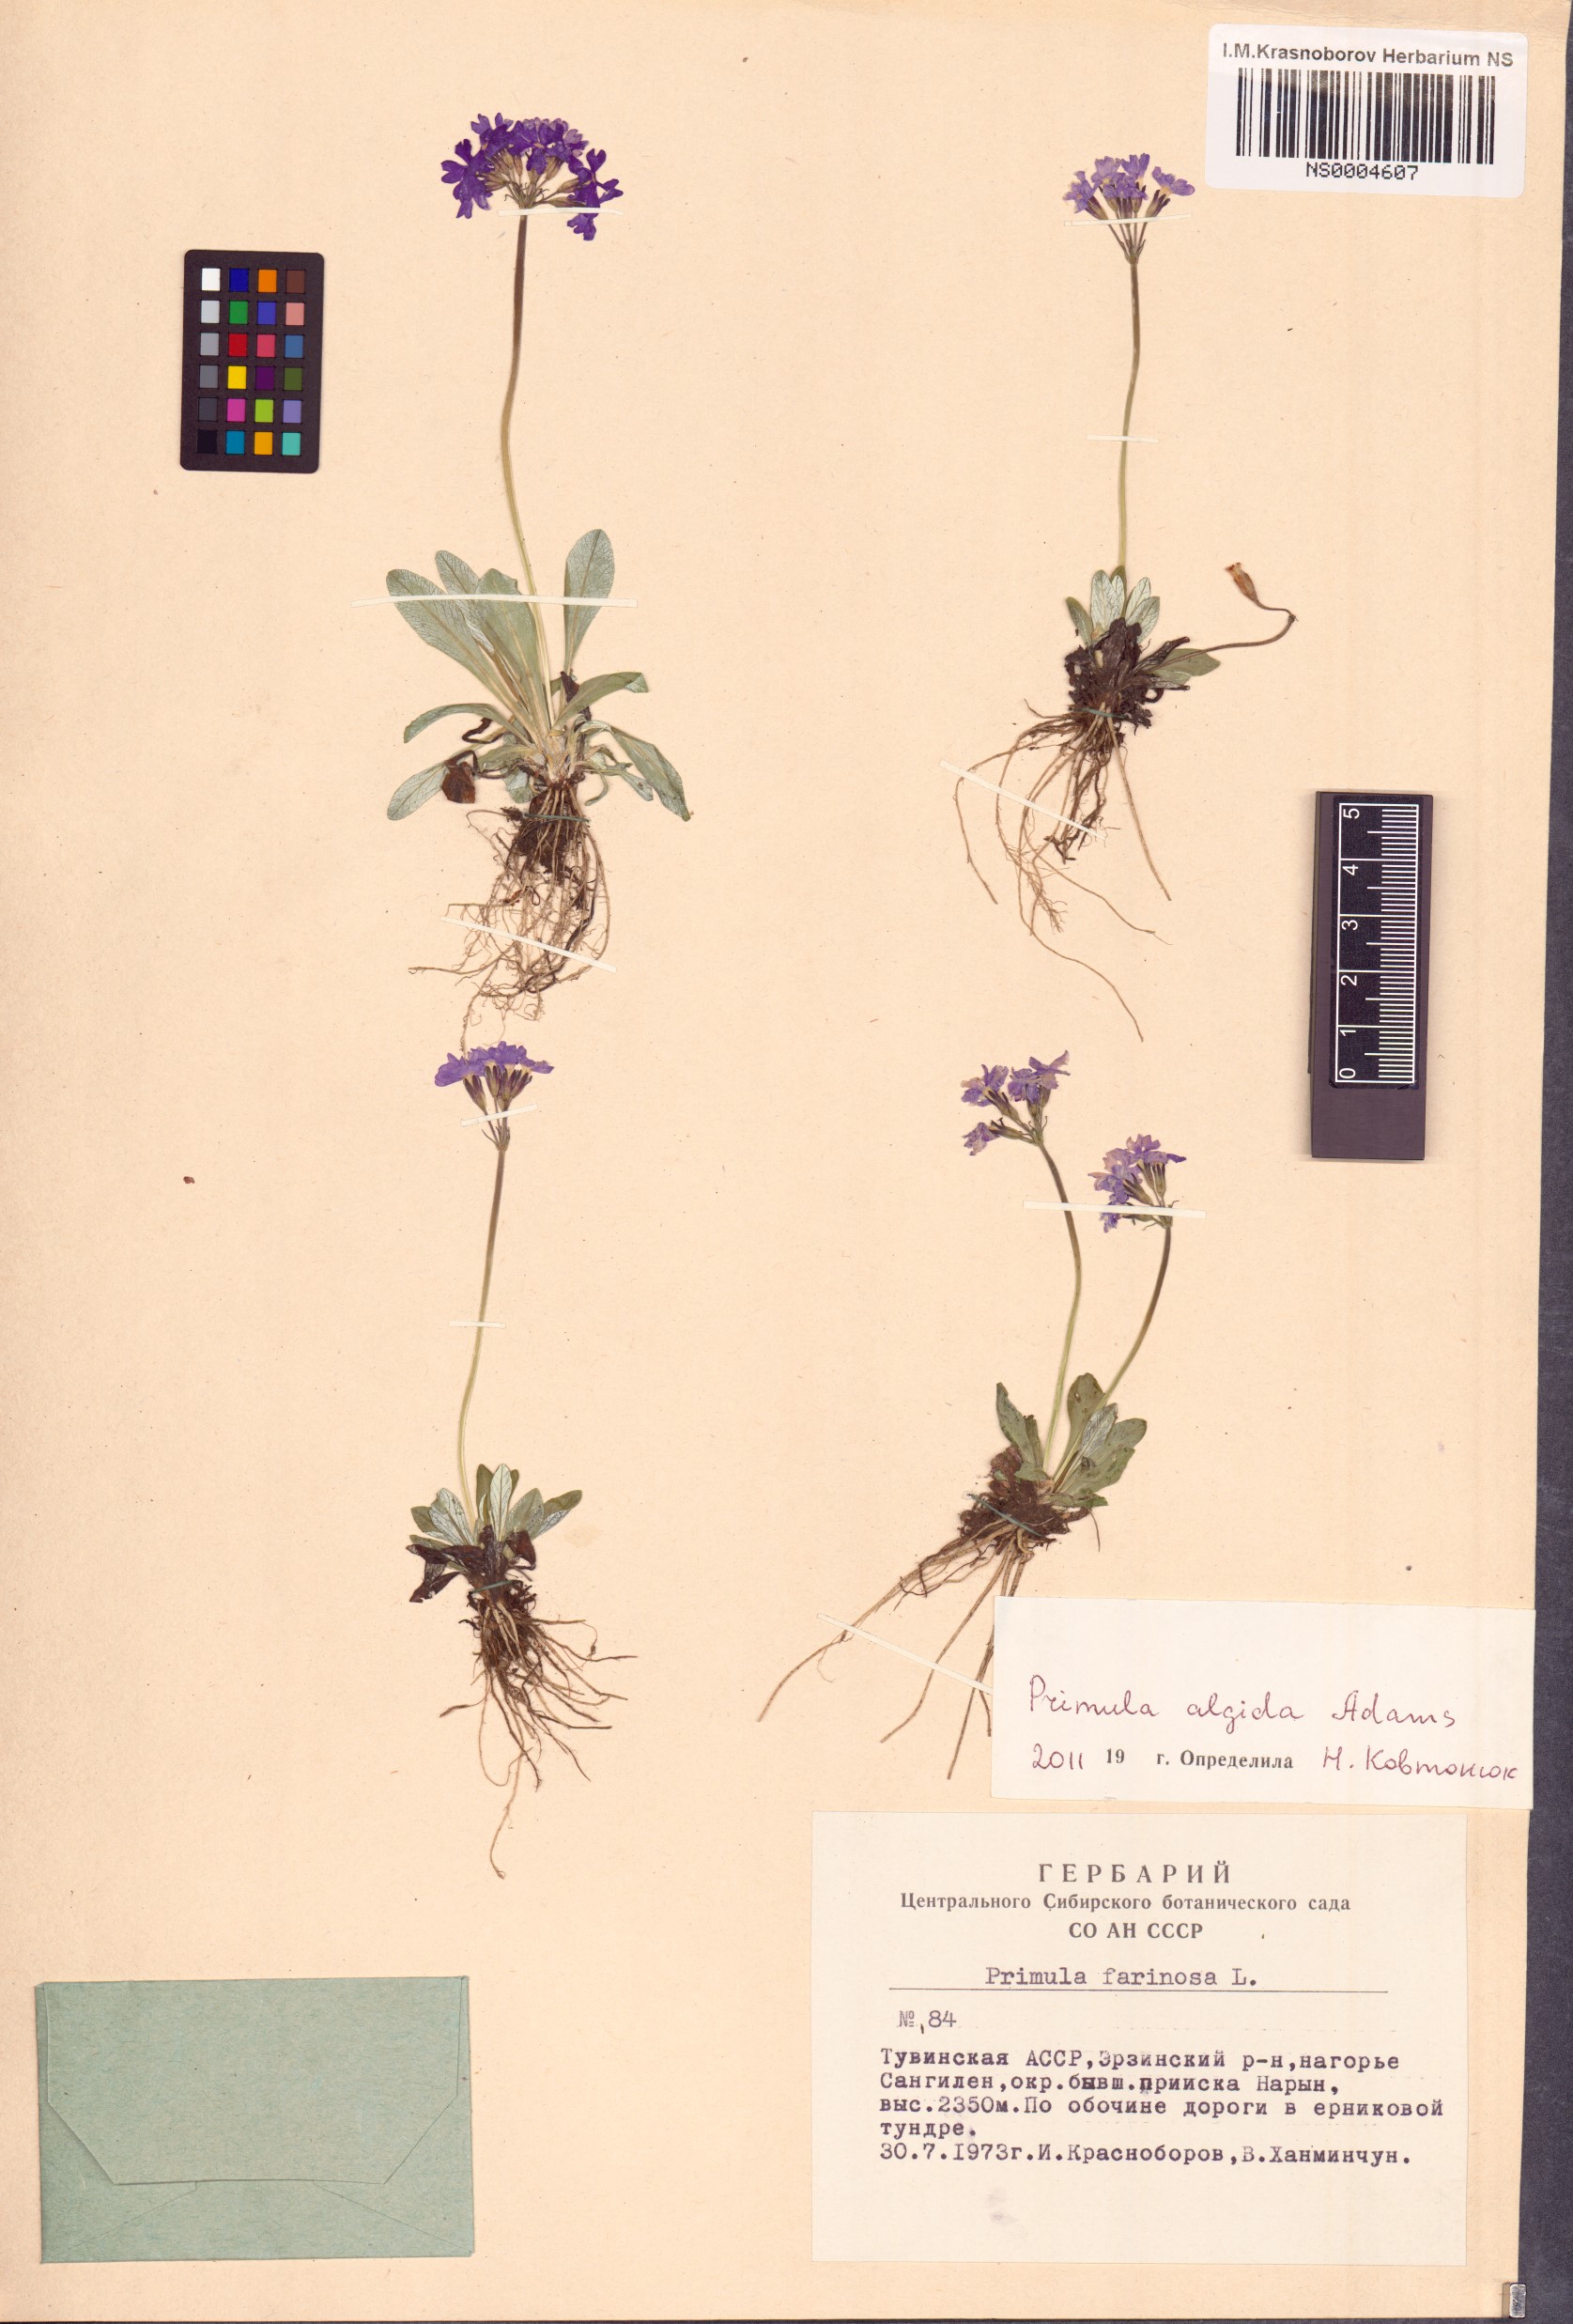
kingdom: Plantae
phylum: Tracheophyta
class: Magnoliopsida
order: Ericales
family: Primulaceae
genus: Primula
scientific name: Primula algida
